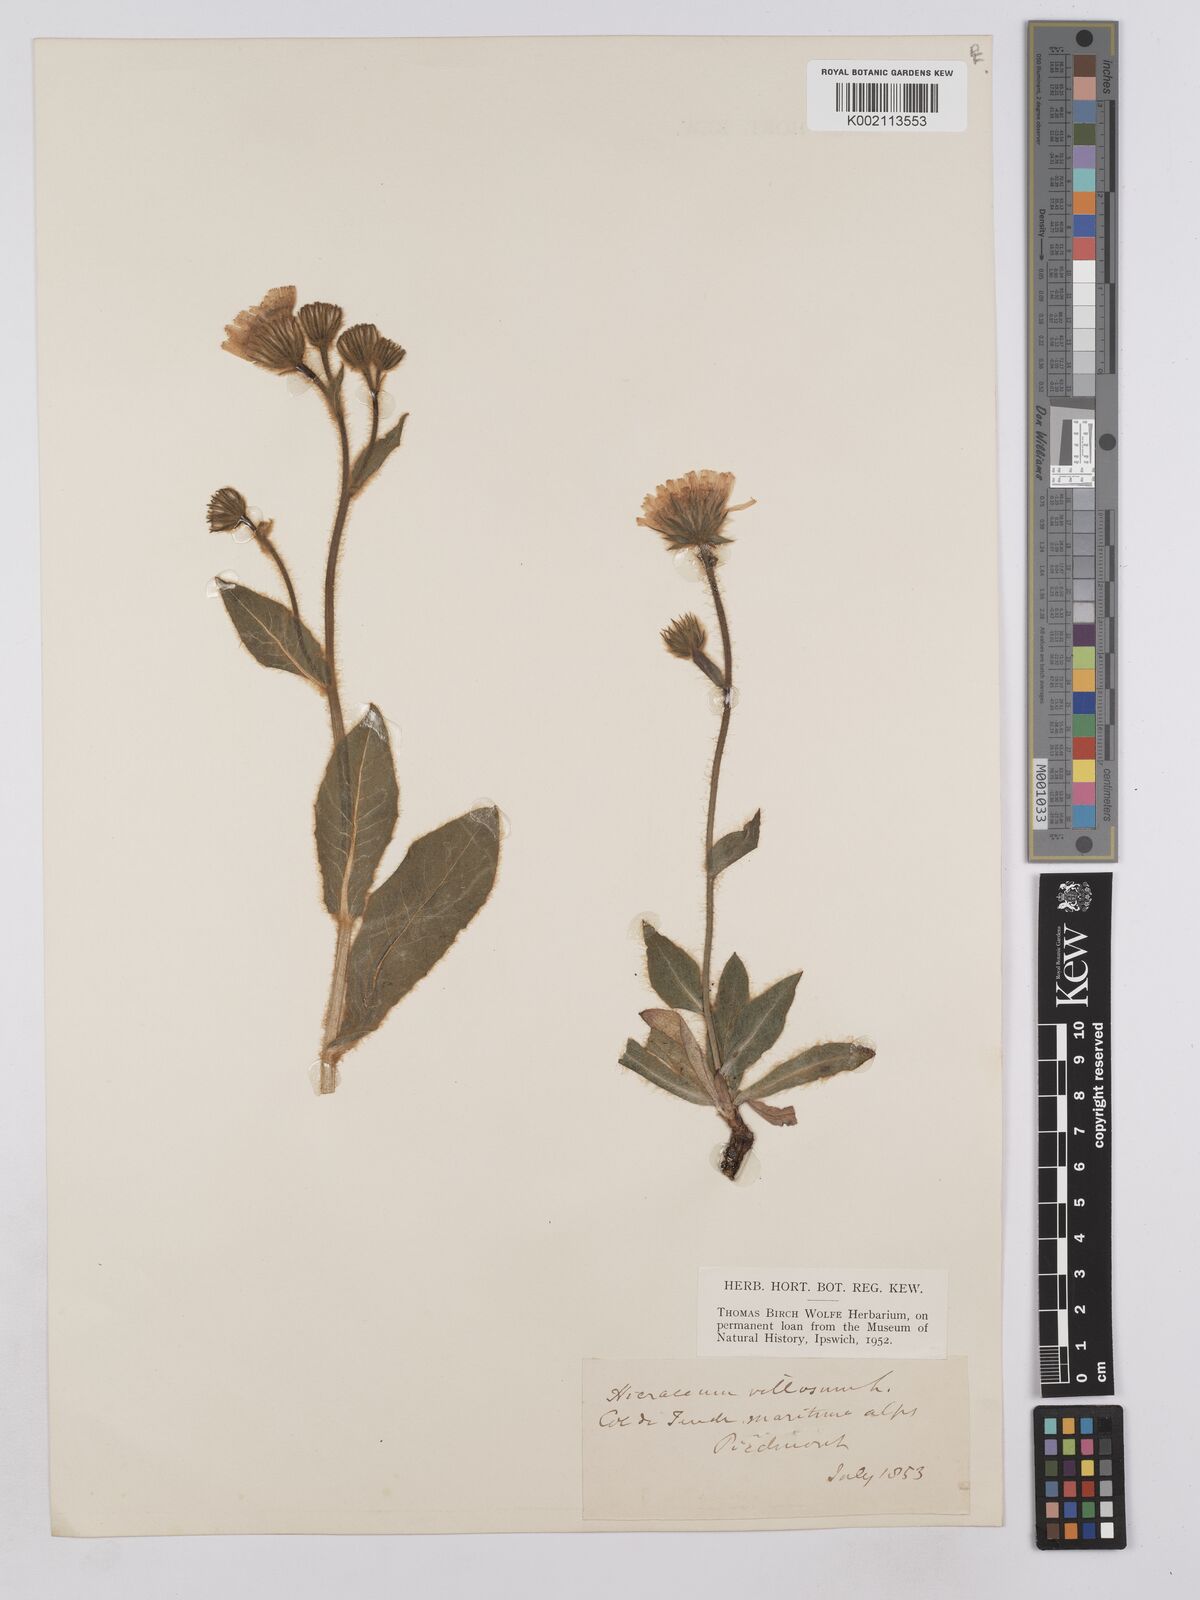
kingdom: Plantae
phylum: Tracheophyta
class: Magnoliopsida
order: Asterales
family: Asteraceae
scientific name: Asteraceae
